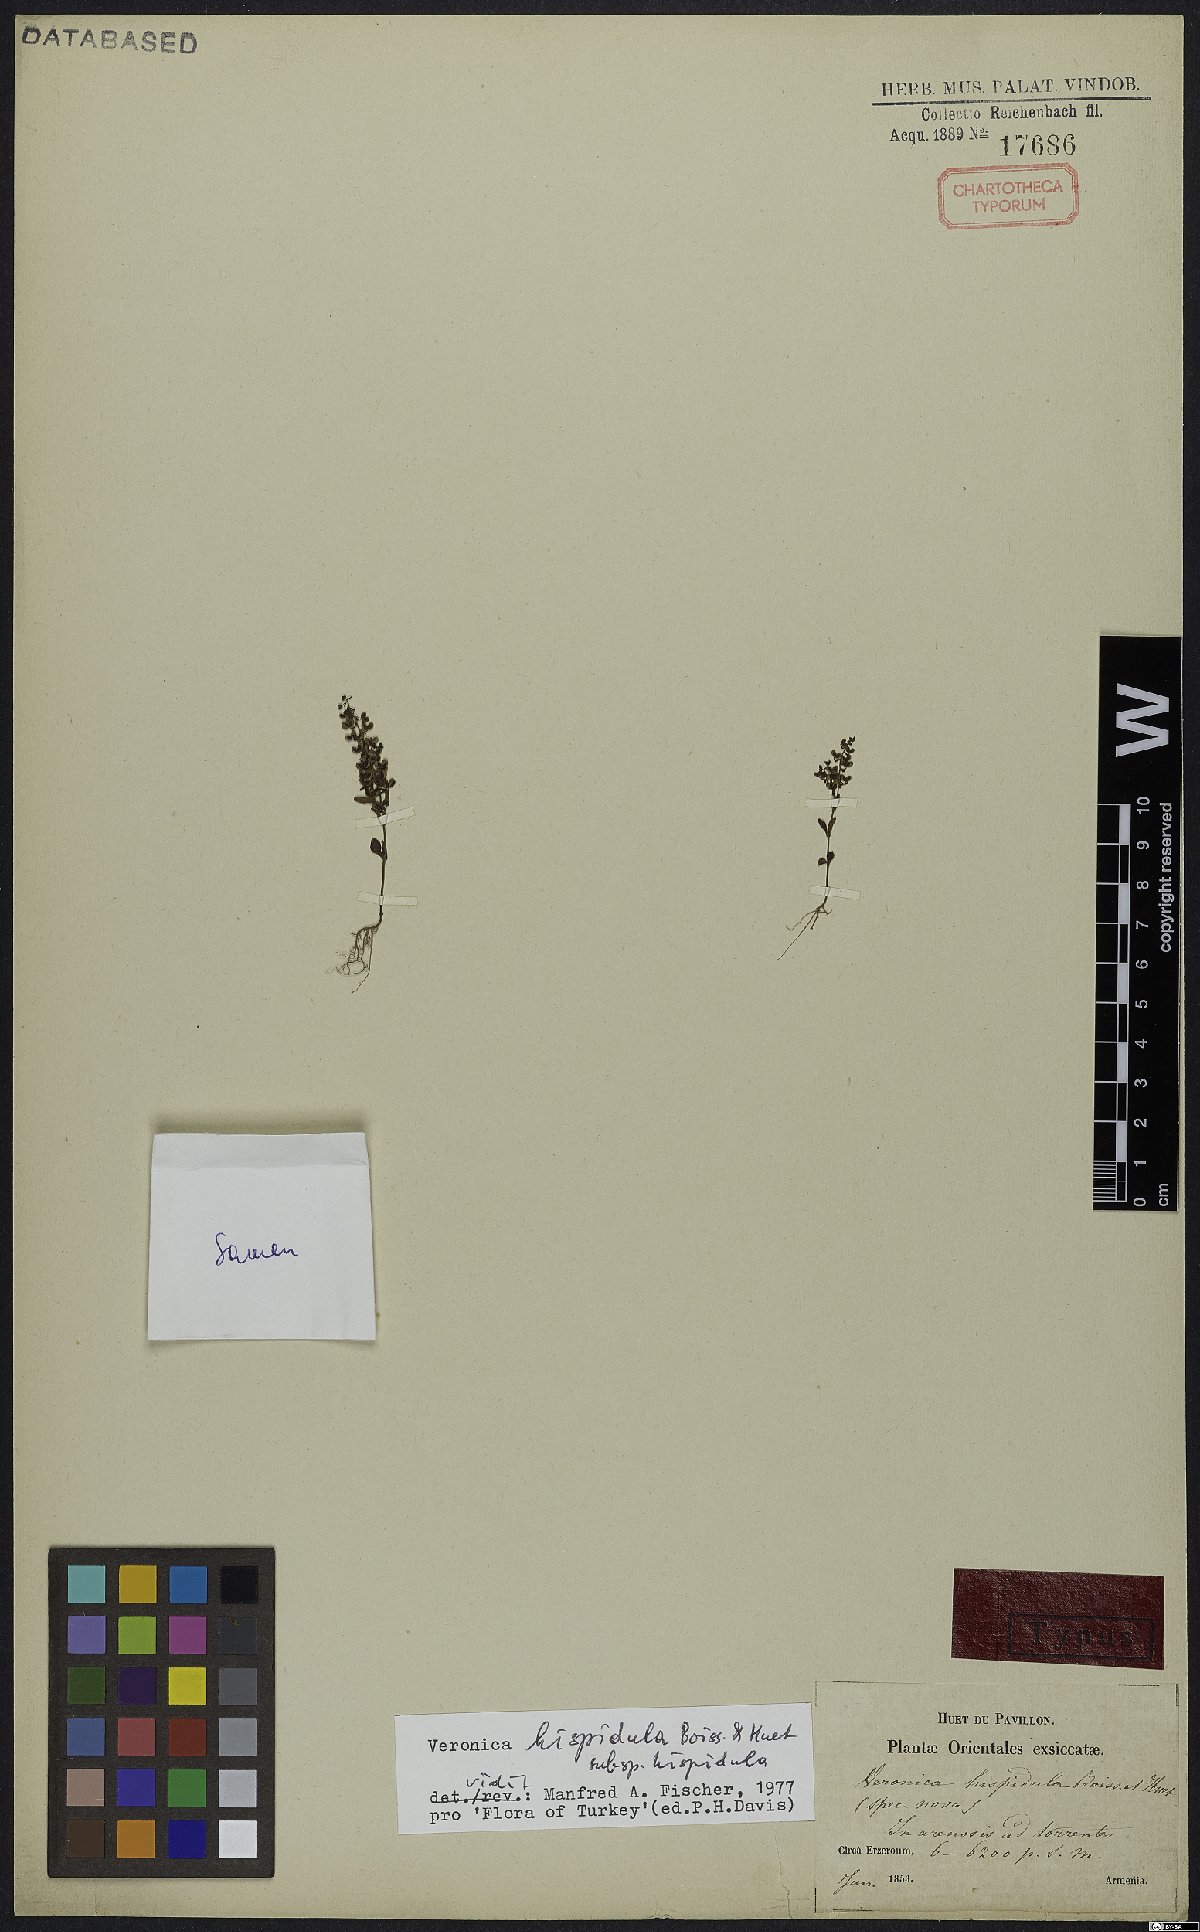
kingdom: Plantae
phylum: Tracheophyta
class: Magnoliopsida
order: Lamiales
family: Plantaginaceae
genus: Veronica
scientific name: Veronica hispidula
